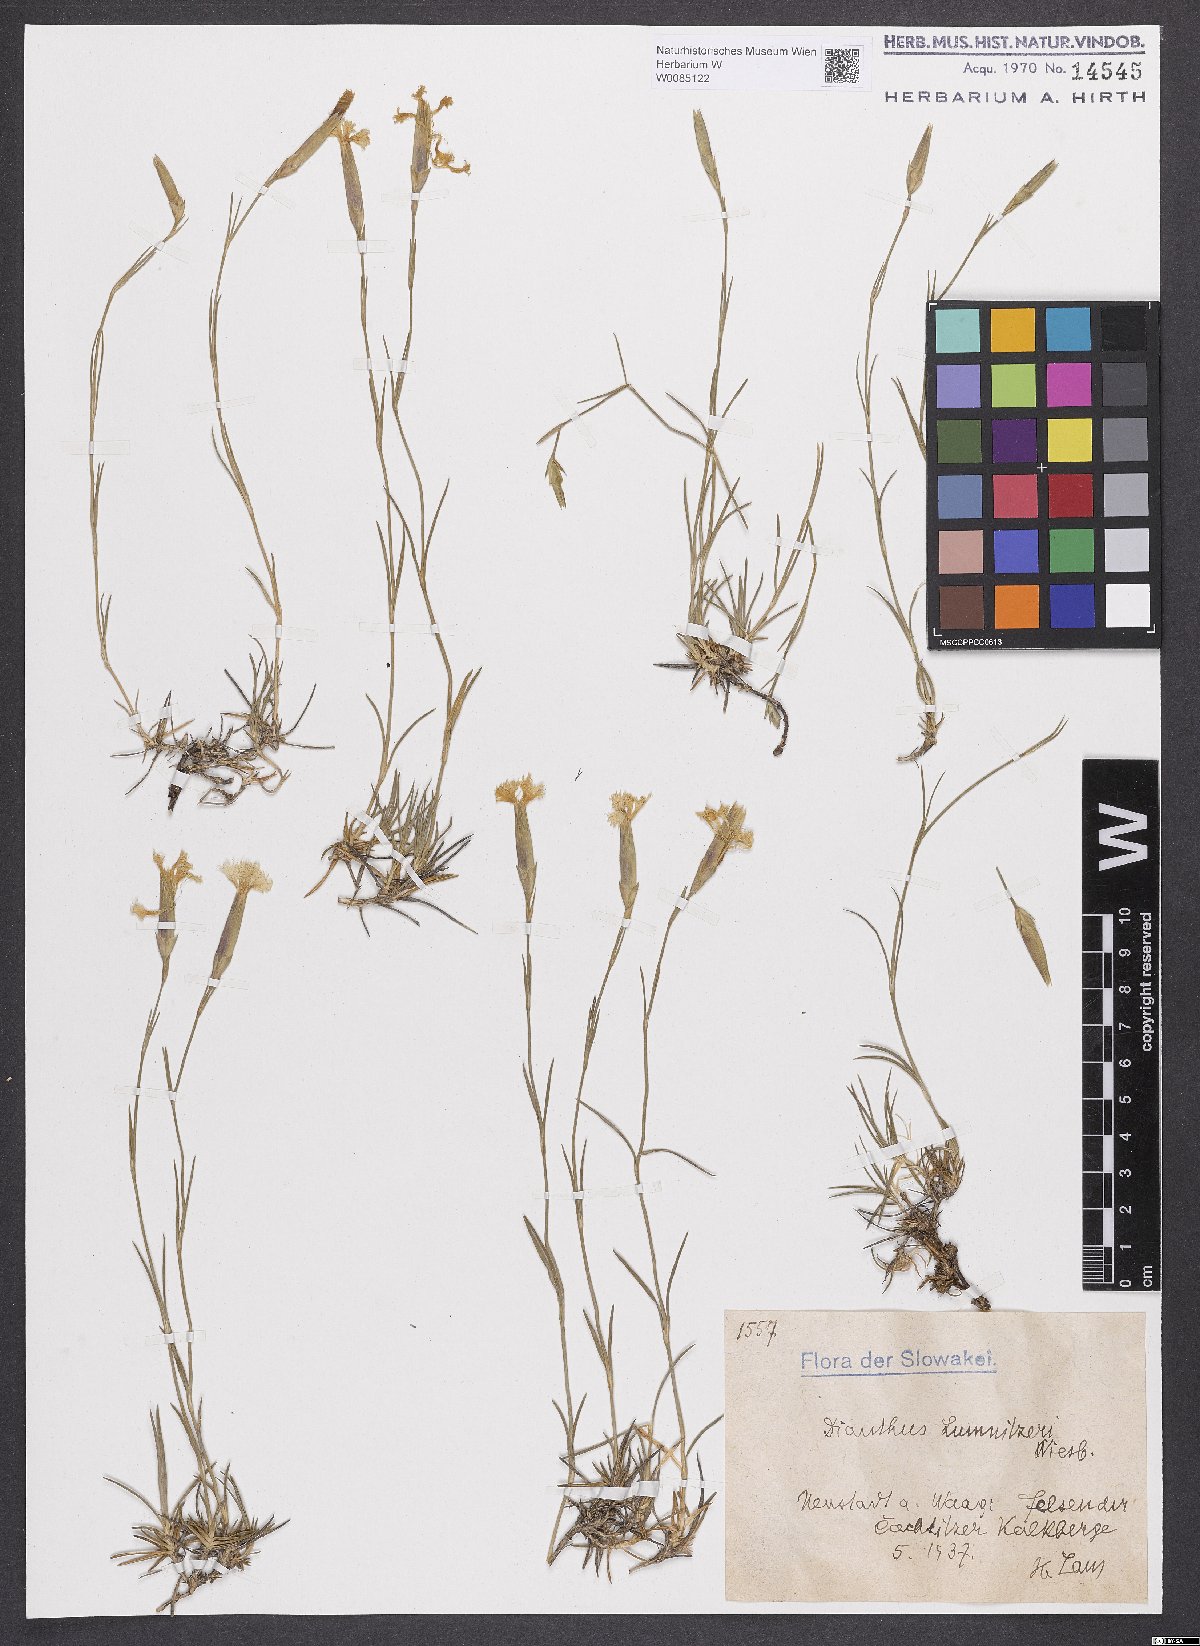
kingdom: Plantae
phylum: Tracheophyta
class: Magnoliopsida
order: Caryophyllales
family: Caryophyllaceae
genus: Dianthus
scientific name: Dianthus praecox
